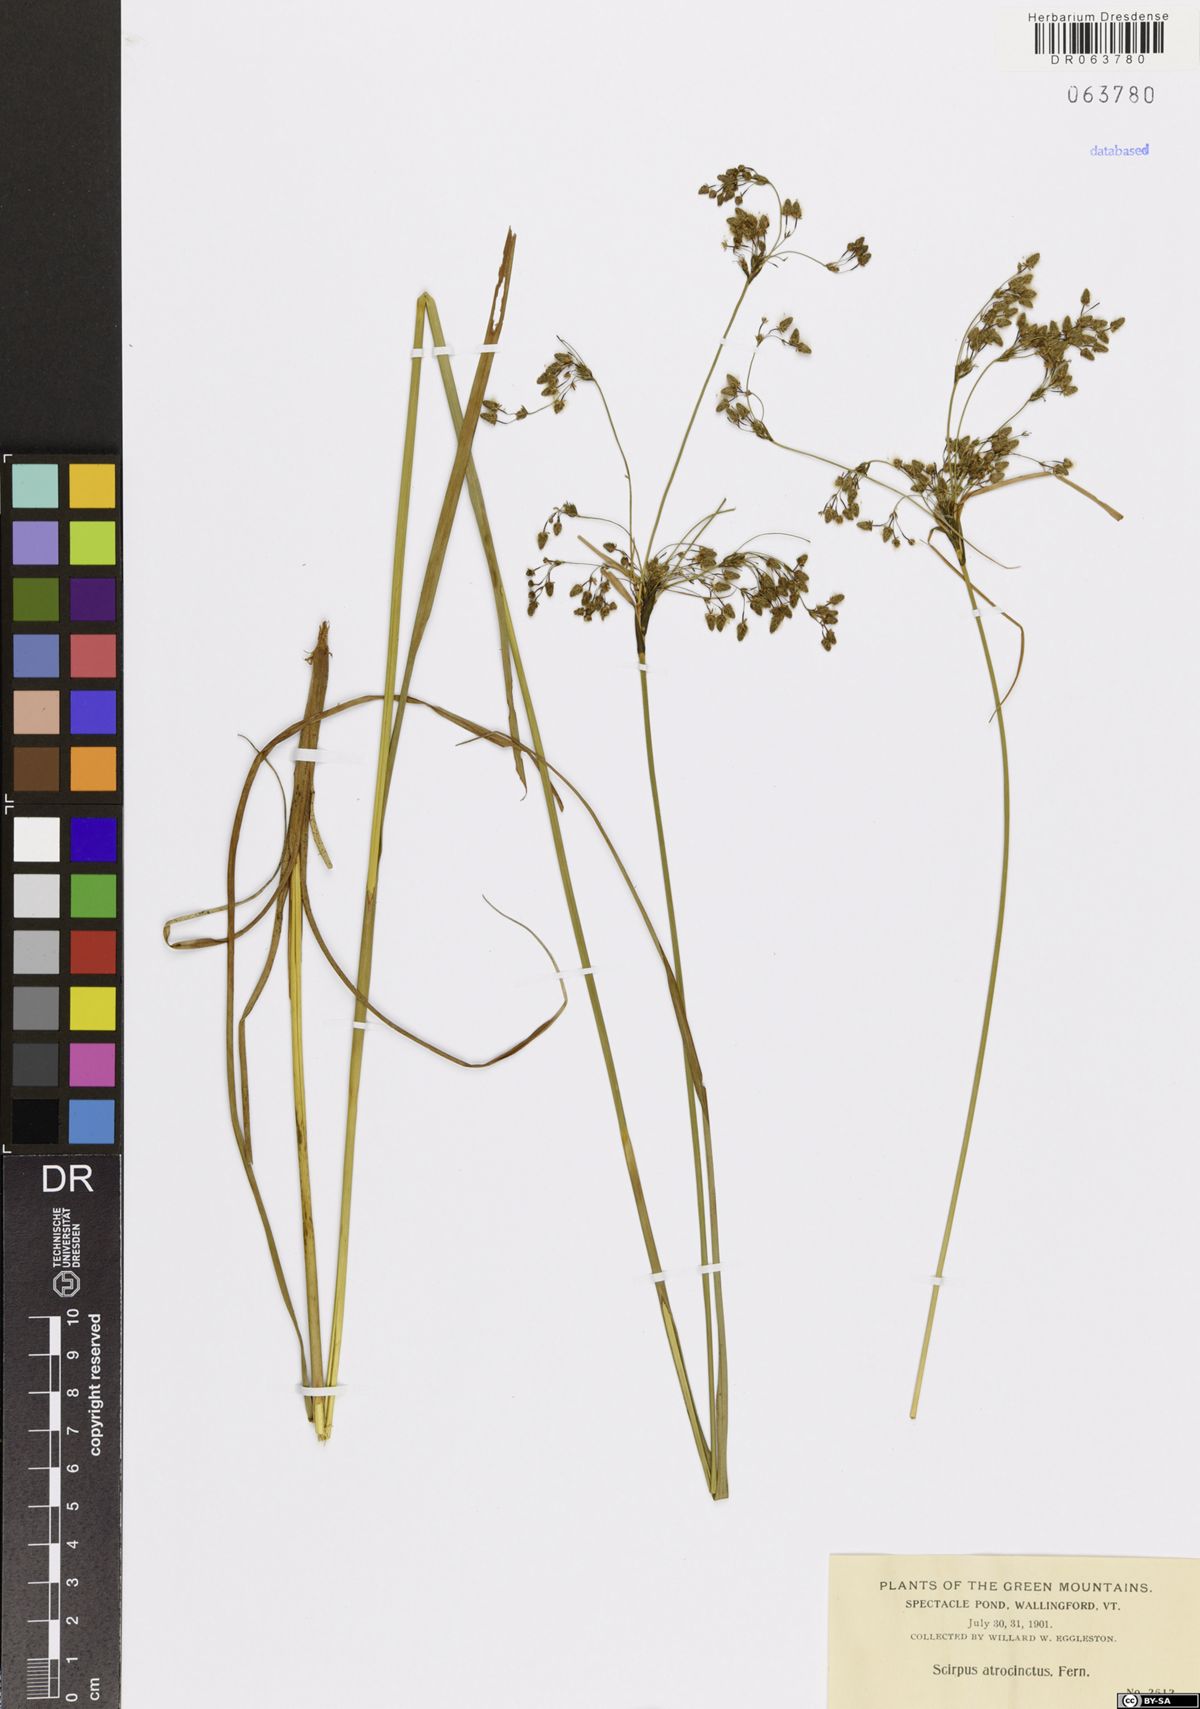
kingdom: Plantae
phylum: Tracheophyta
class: Liliopsida
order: Poales
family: Cyperaceae
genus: Scirpus
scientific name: Scirpus atrocinctus
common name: Black-girdled bulrush
